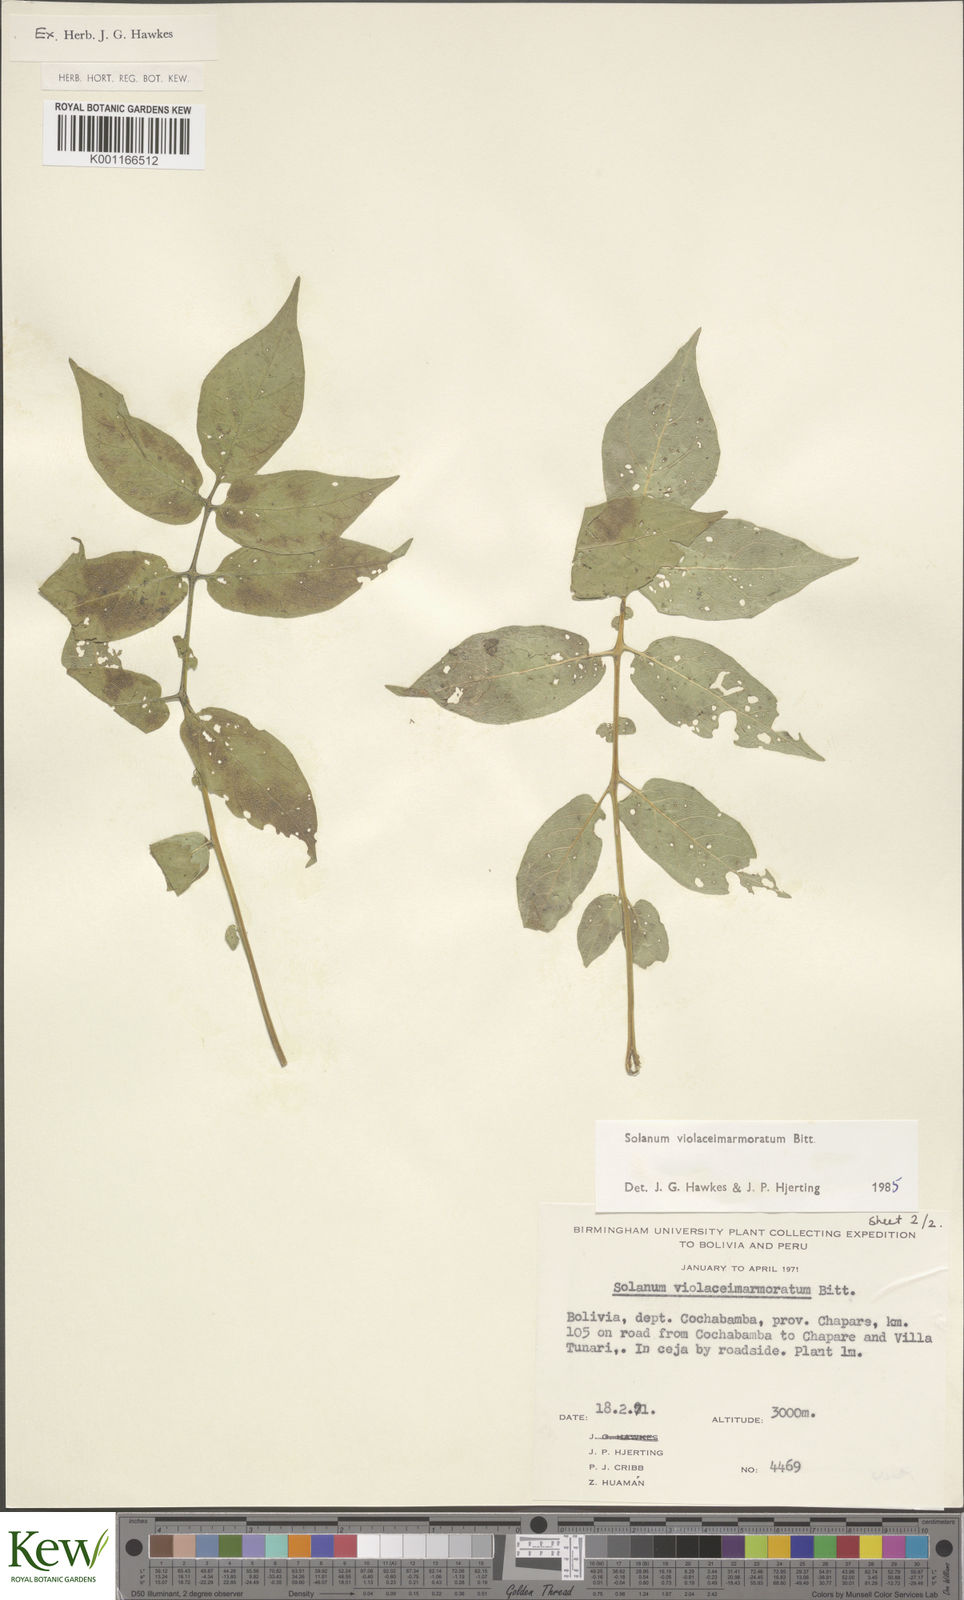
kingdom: Plantae
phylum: Tracheophyta
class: Magnoliopsida
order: Solanales
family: Solanaceae
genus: Solanum
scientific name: Solanum violaceimarmoratum
